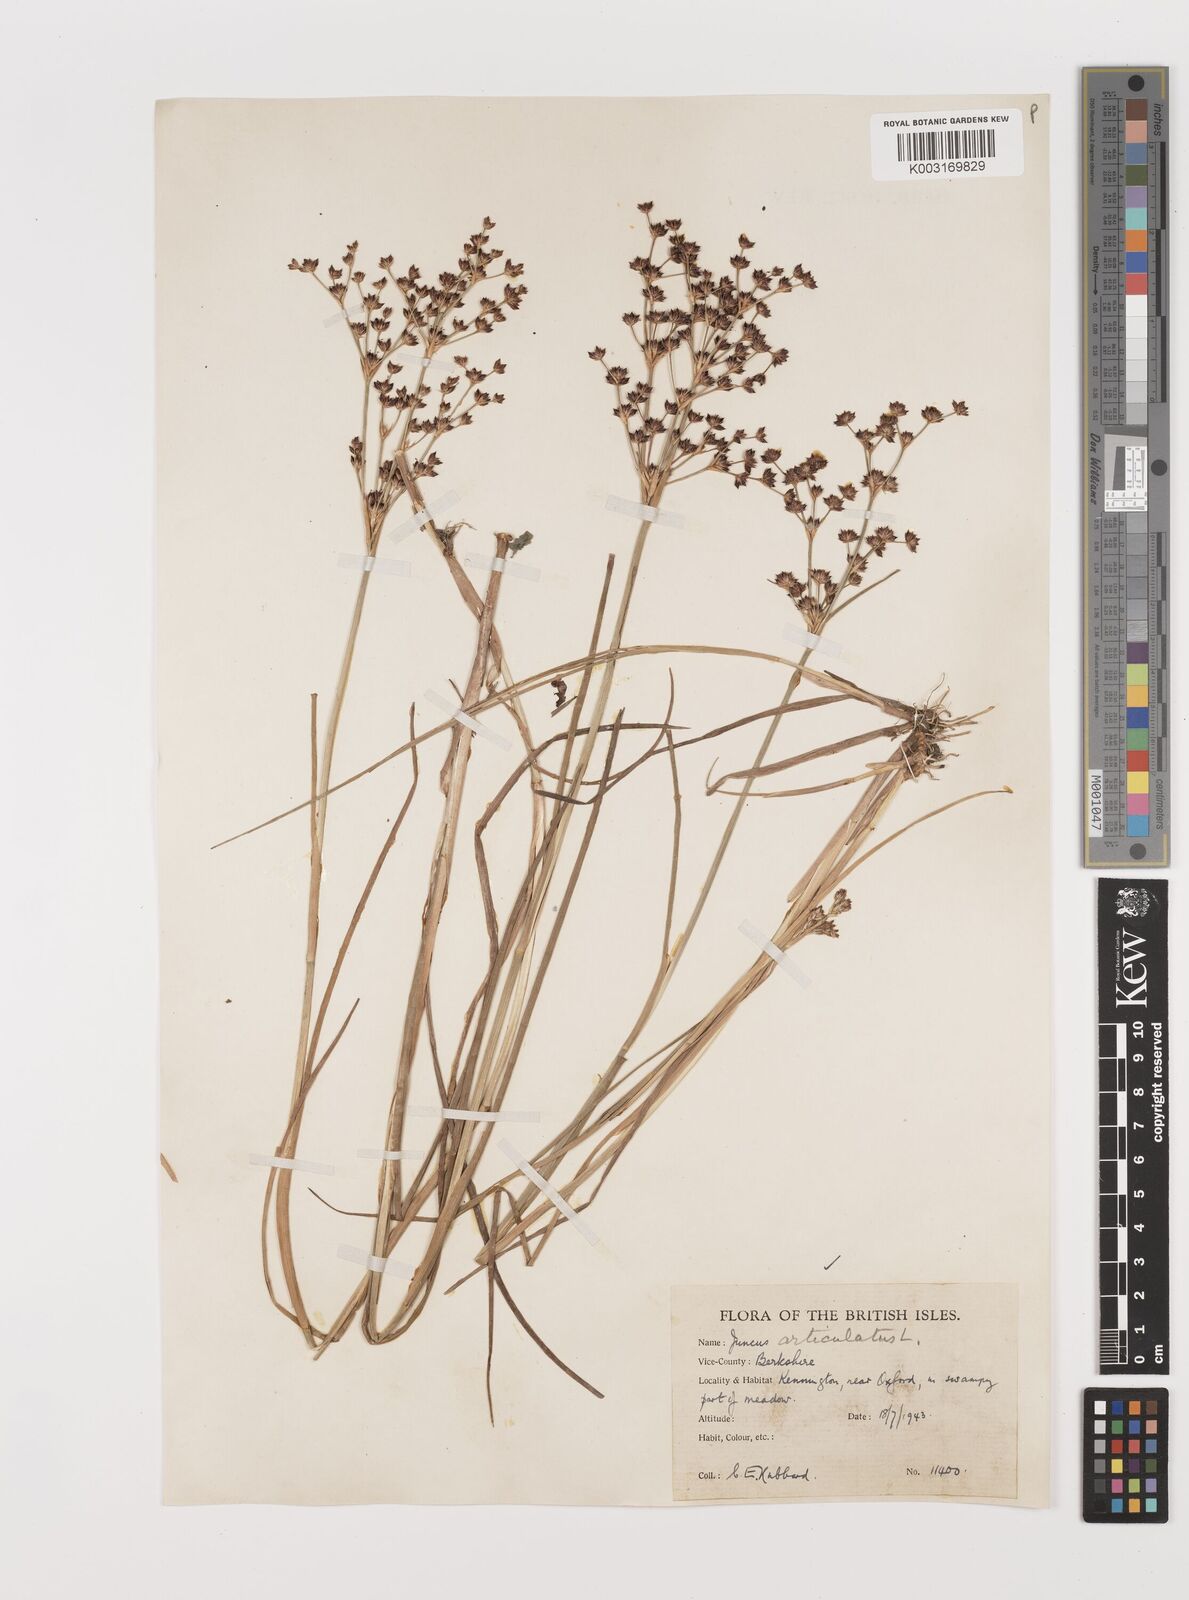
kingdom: Plantae
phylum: Tracheophyta
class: Liliopsida
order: Poales
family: Juncaceae
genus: Juncus
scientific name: Juncus articulatus
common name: Jointed rush
